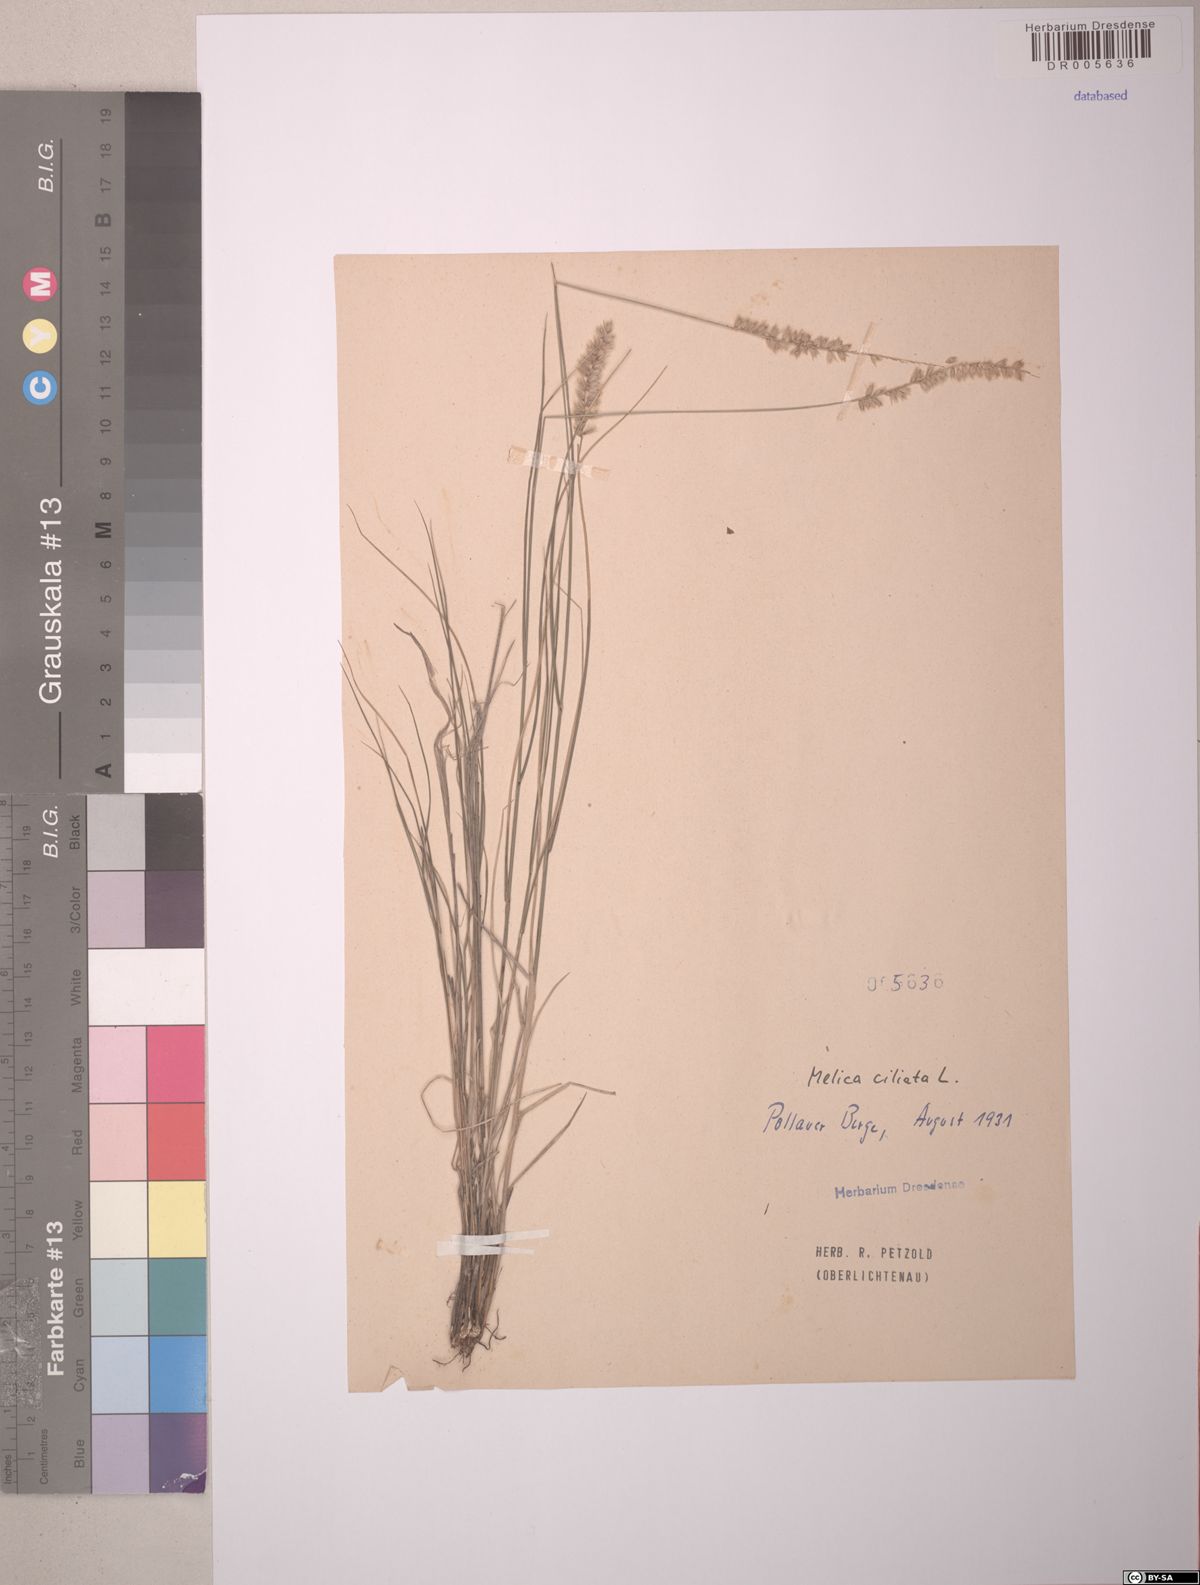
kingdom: Plantae
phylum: Tracheophyta
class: Liliopsida
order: Poales
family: Poaceae
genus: Melica
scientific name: Melica ciliata
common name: Hairy melicgrass
